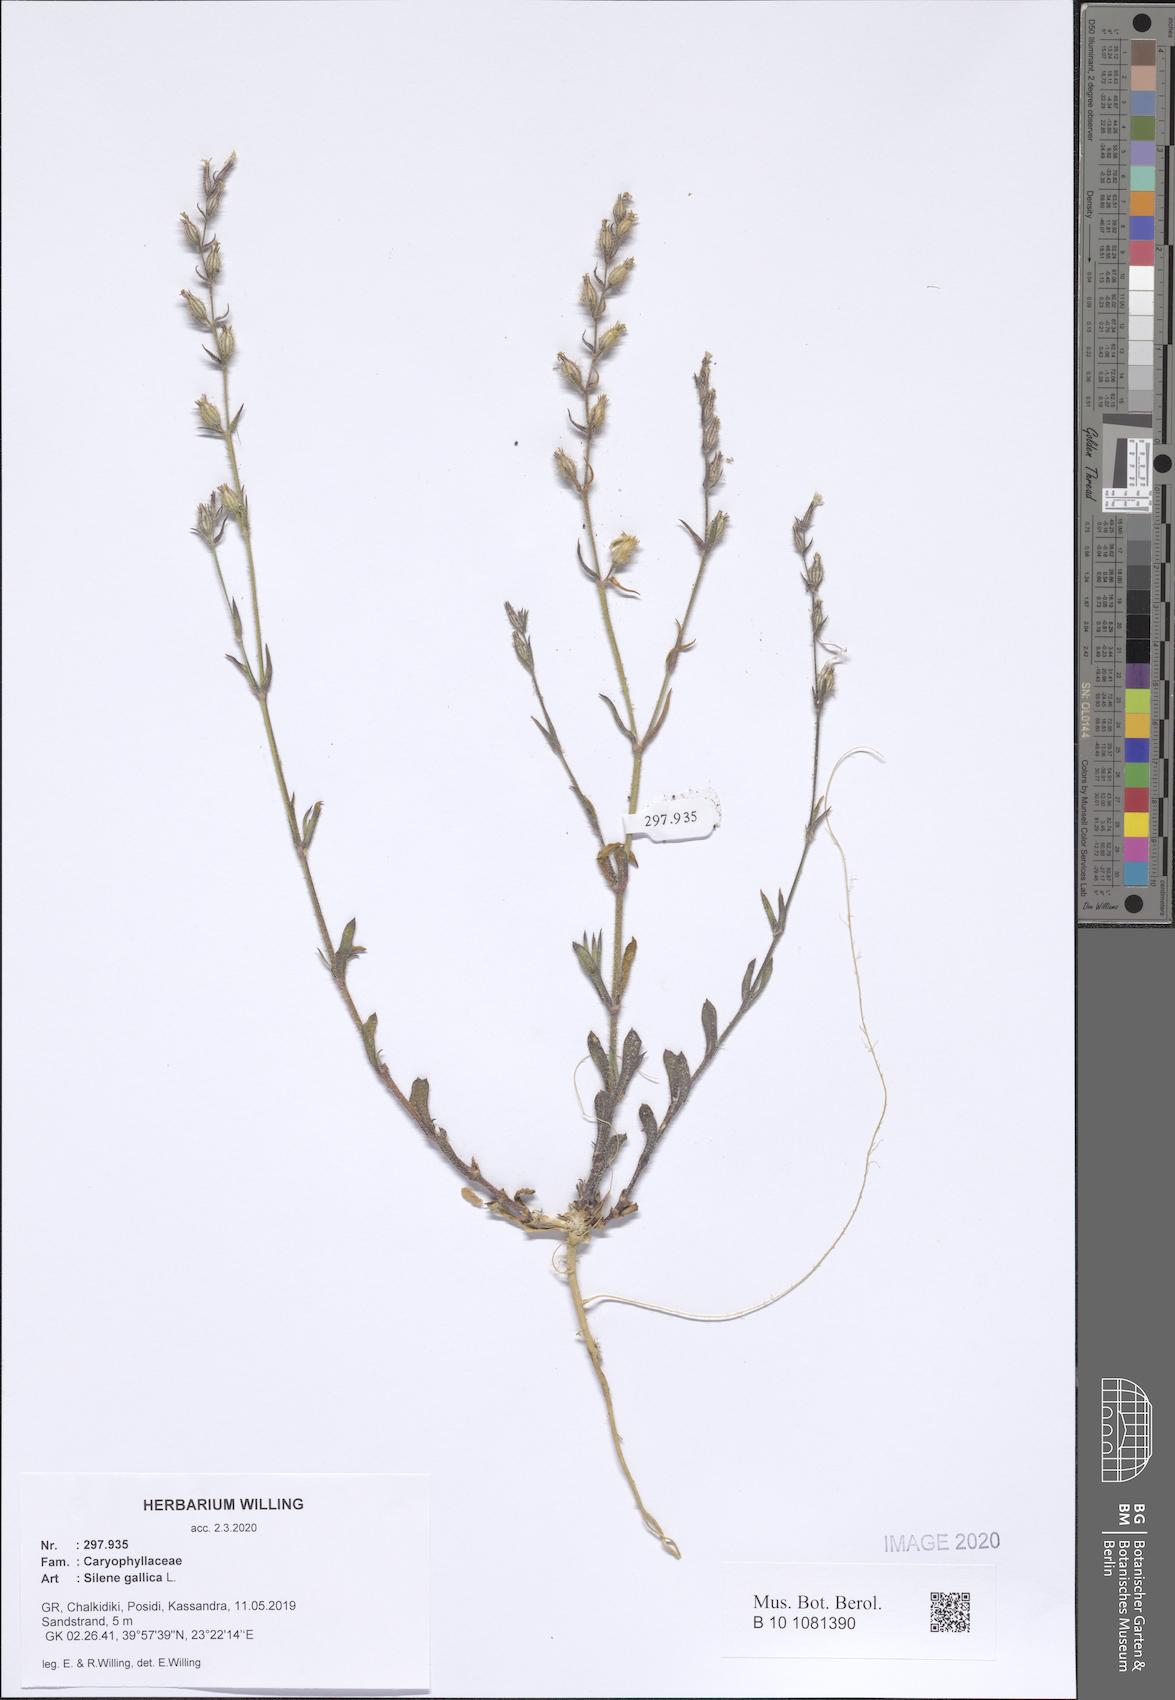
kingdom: Plantae
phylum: Tracheophyta
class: Magnoliopsida
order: Caryophyllales
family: Caryophyllaceae
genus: Silene
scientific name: Silene gallica
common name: Small-flowered catchfly
